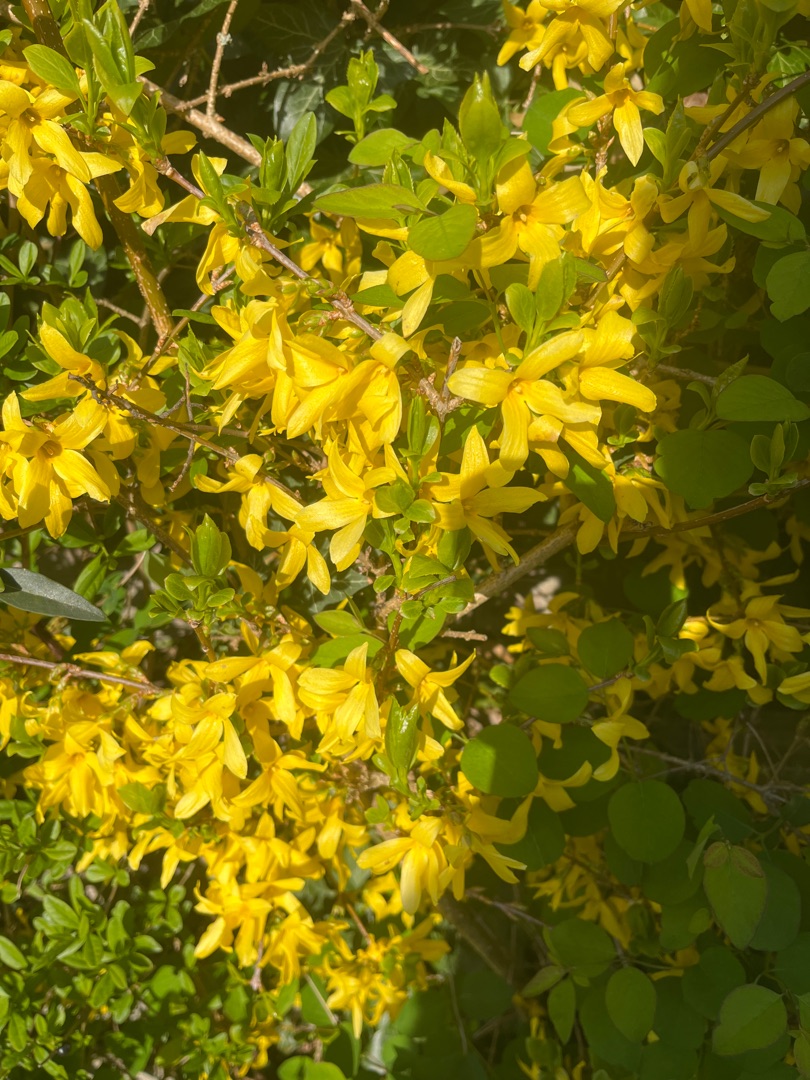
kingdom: Plantae
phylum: Tracheophyta
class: Magnoliopsida
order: Lamiales
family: Oleaceae
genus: Forsythia
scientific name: Forsythia intermedia
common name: Have-forsythia
